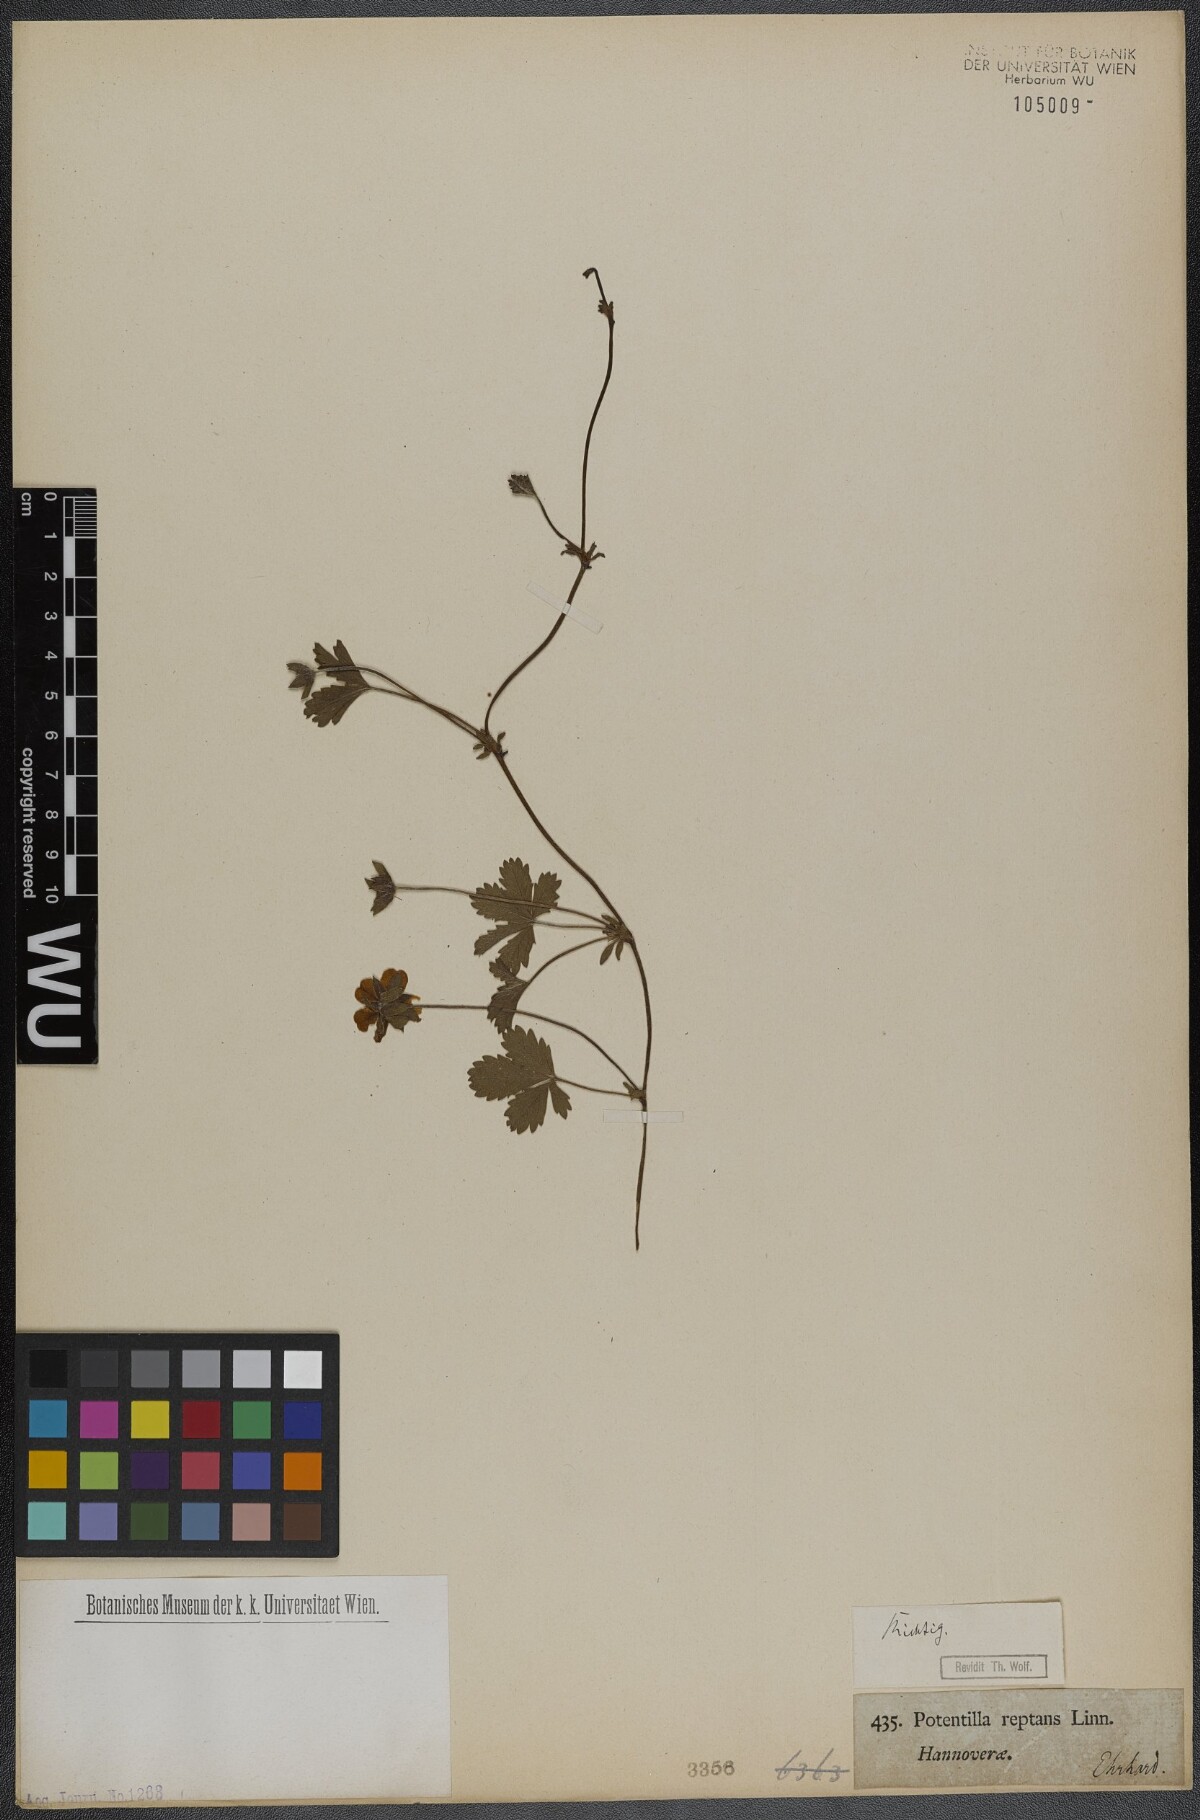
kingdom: Plantae
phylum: Tracheophyta
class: Magnoliopsida
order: Rosales
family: Rosaceae
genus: Potentilla
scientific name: Potentilla reptans
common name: Creeping cinquefoil
